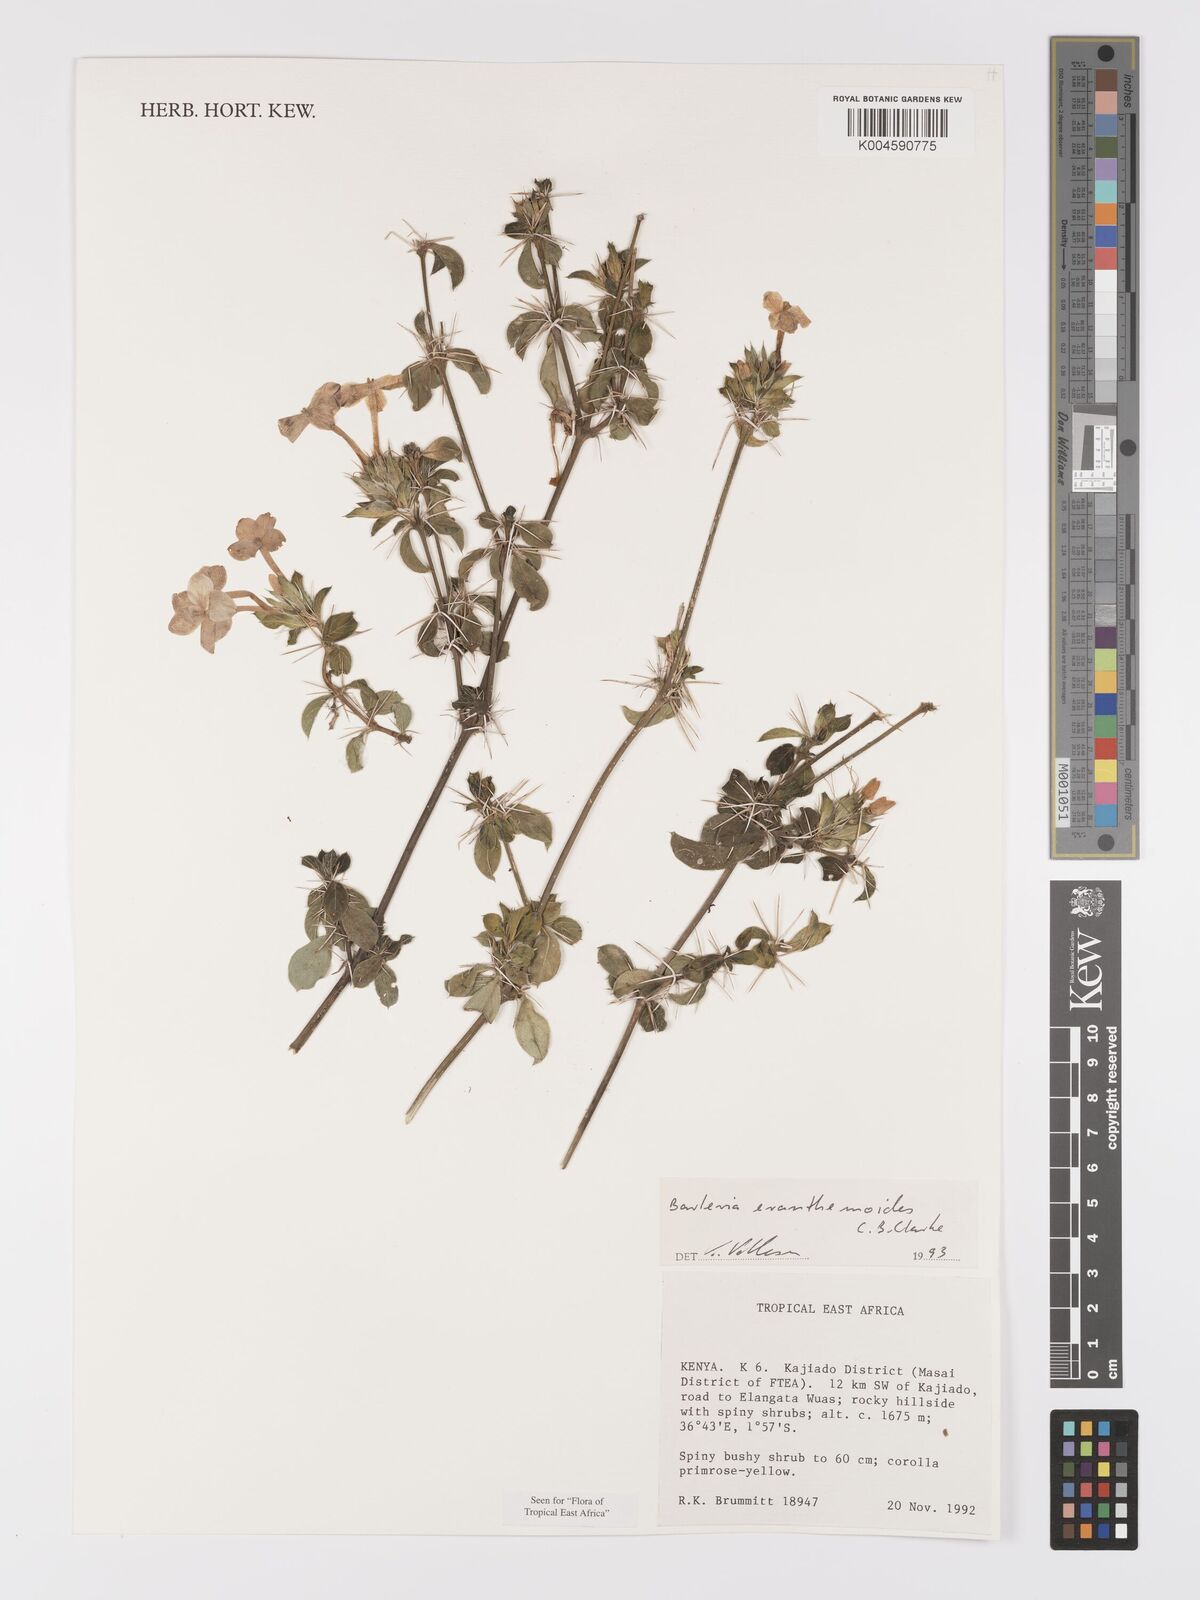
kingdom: Plantae
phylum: Tracheophyta
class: Magnoliopsida
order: Lamiales
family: Acanthaceae
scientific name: Acanthaceae
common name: Acanthaceae
